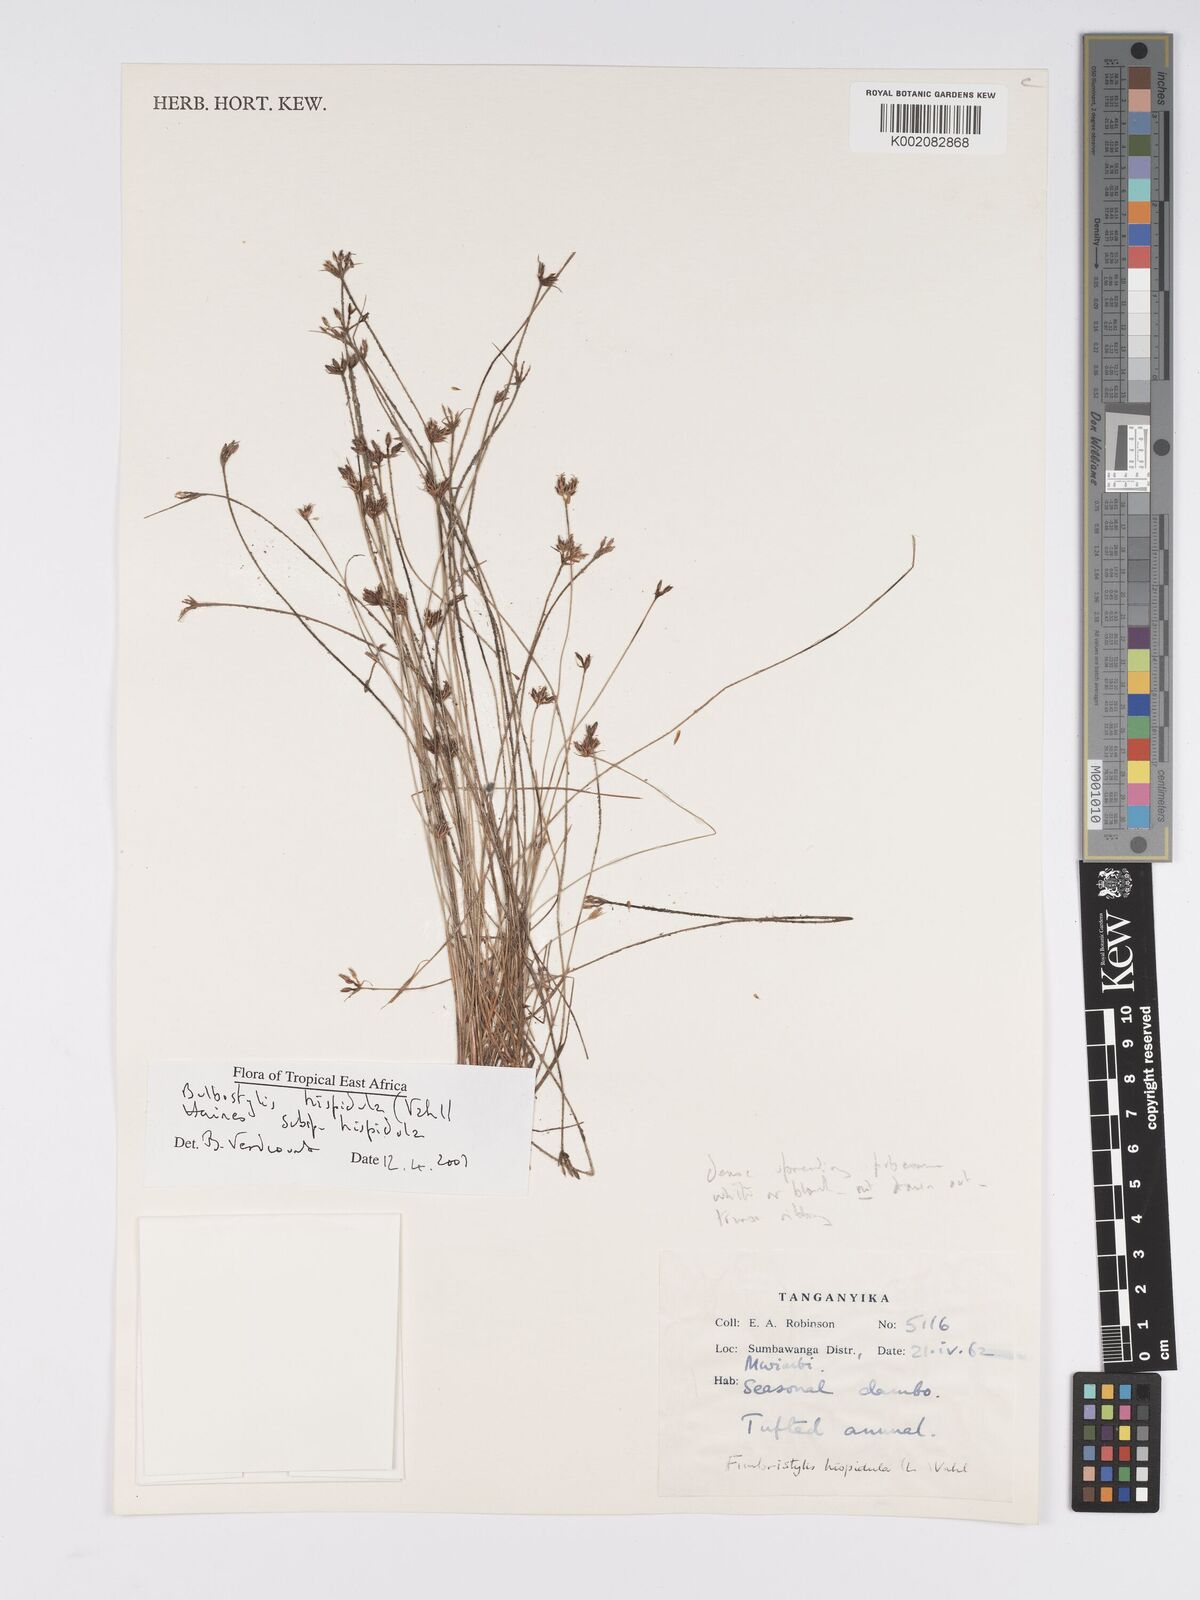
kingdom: Plantae
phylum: Tracheophyta
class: Liliopsida
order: Poales
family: Cyperaceae
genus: Bulbostylis
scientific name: Bulbostylis hispidula
